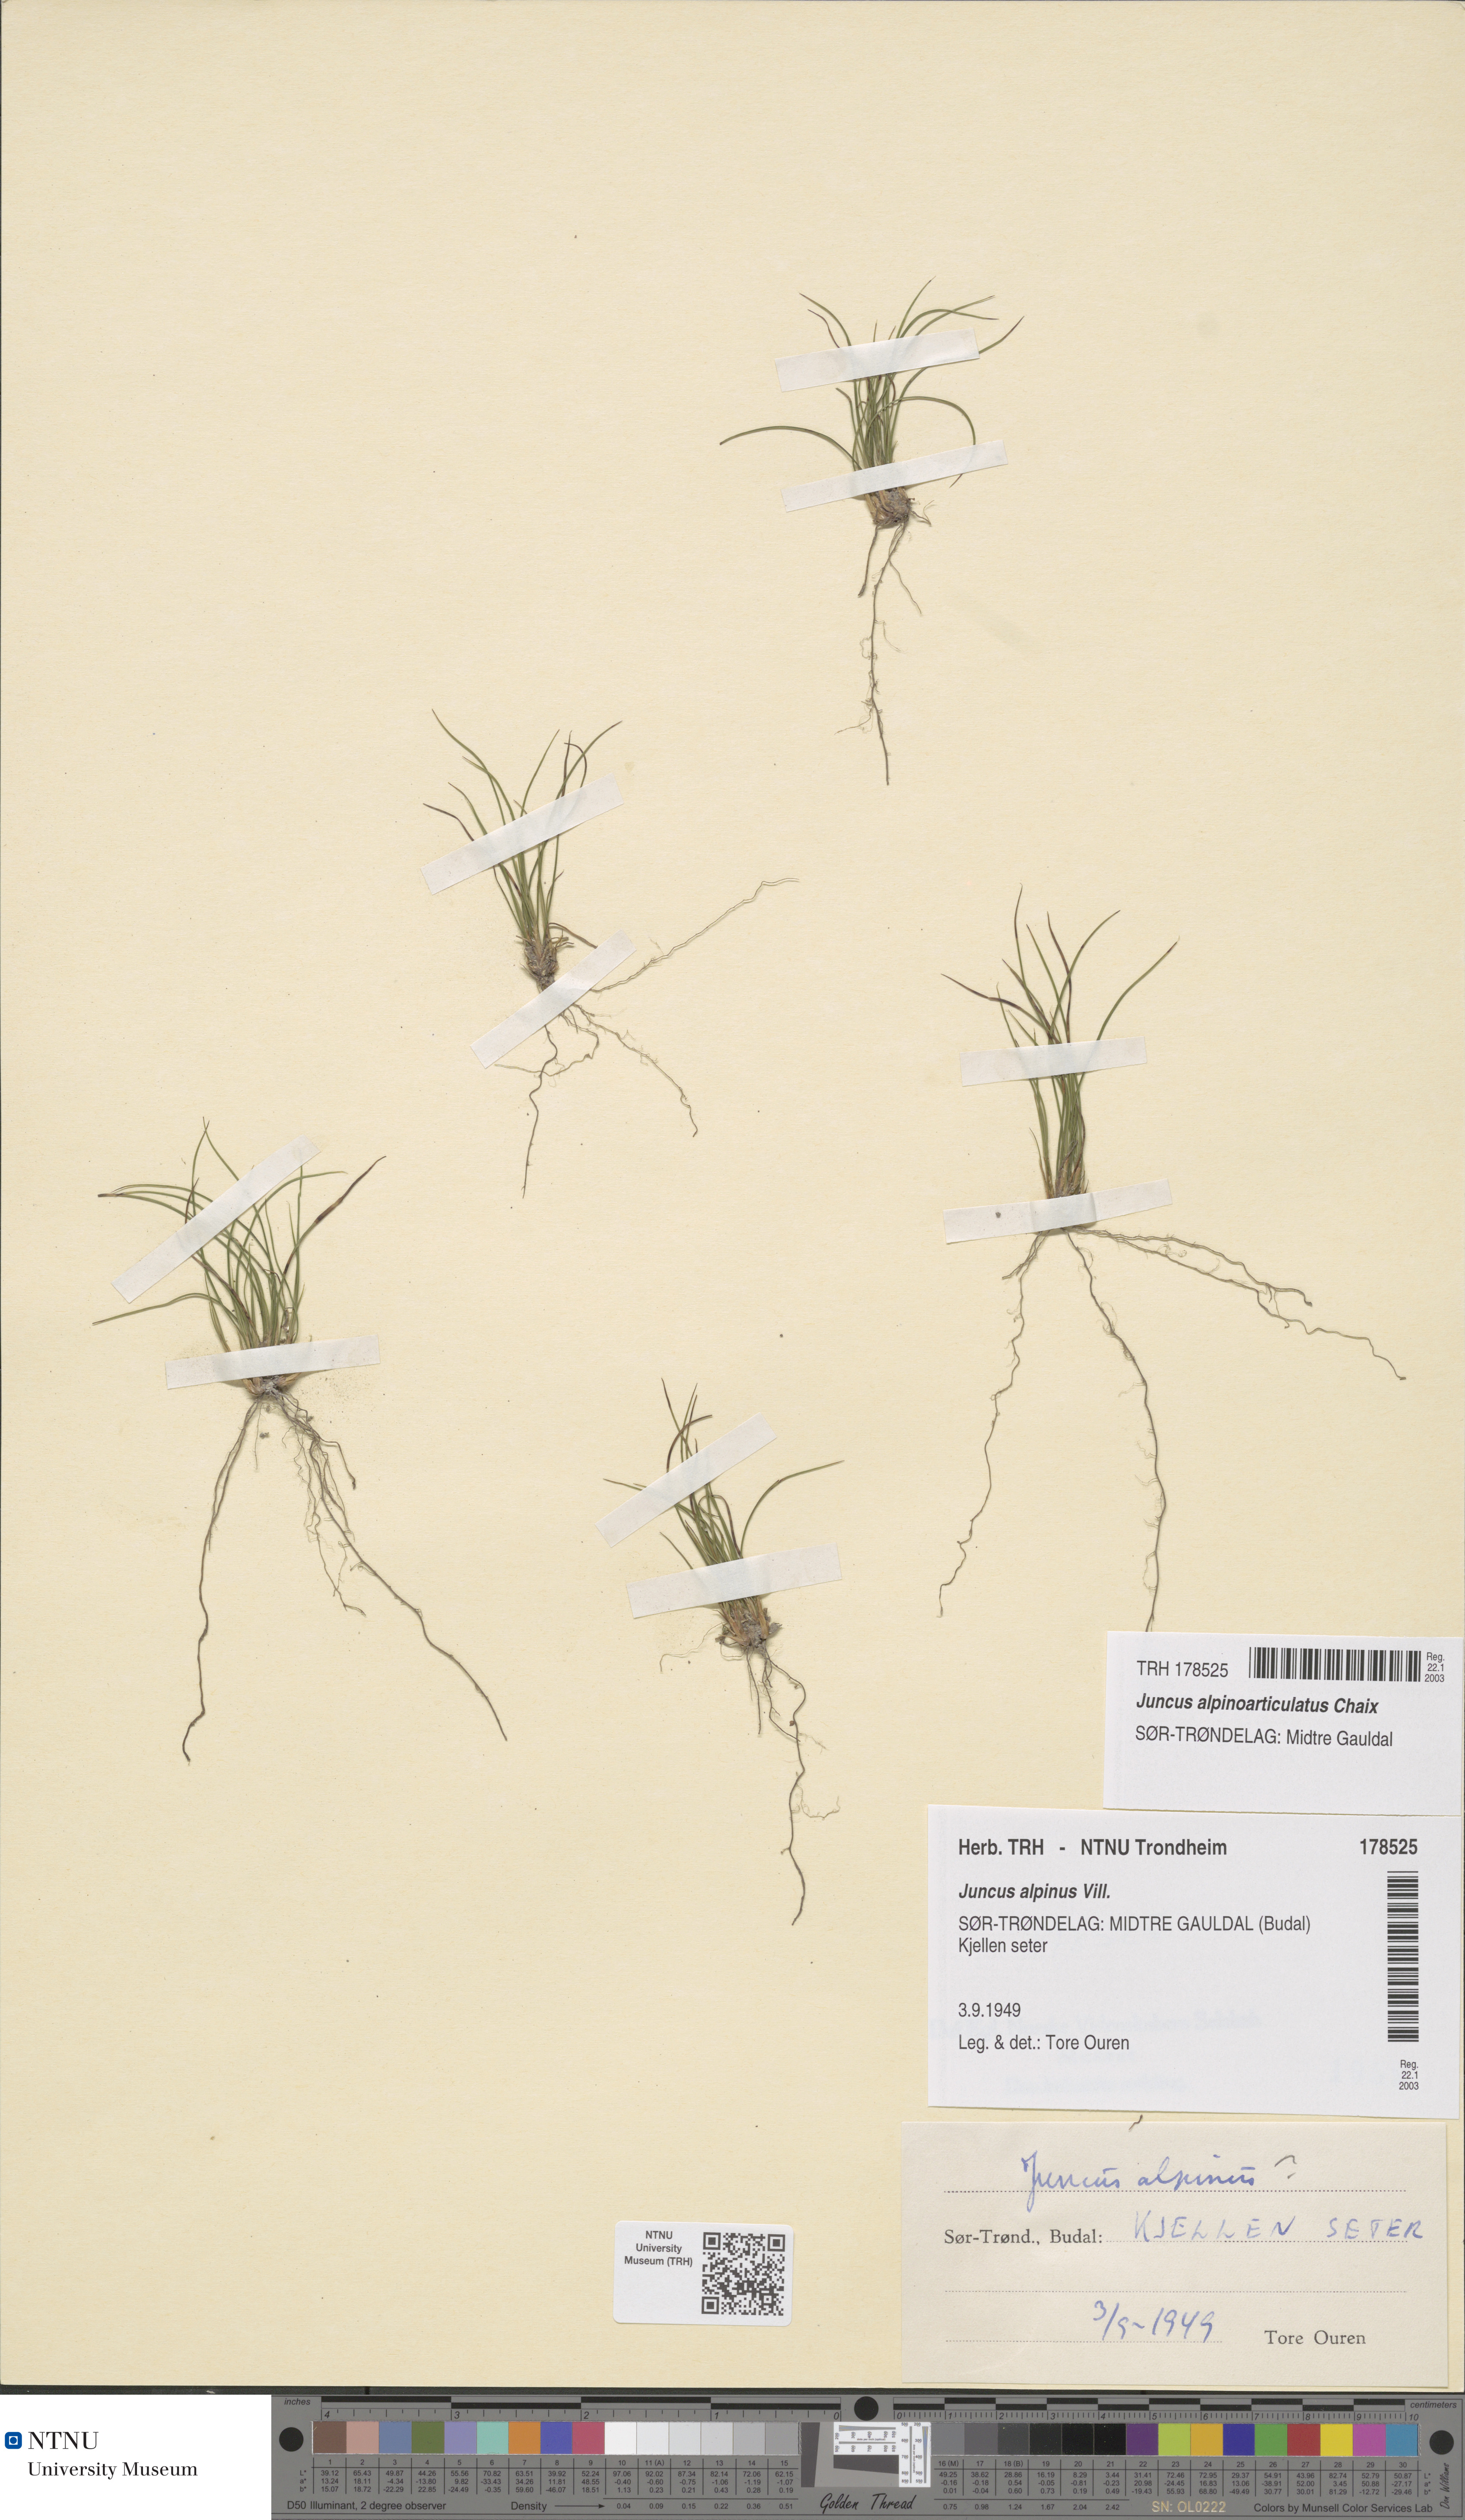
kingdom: Plantae
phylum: Tracheophyta
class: Liliopsida
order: Poales
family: Juncaceae
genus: Juncus
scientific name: Juncus alpinoarticulatus
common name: Alpine rush
